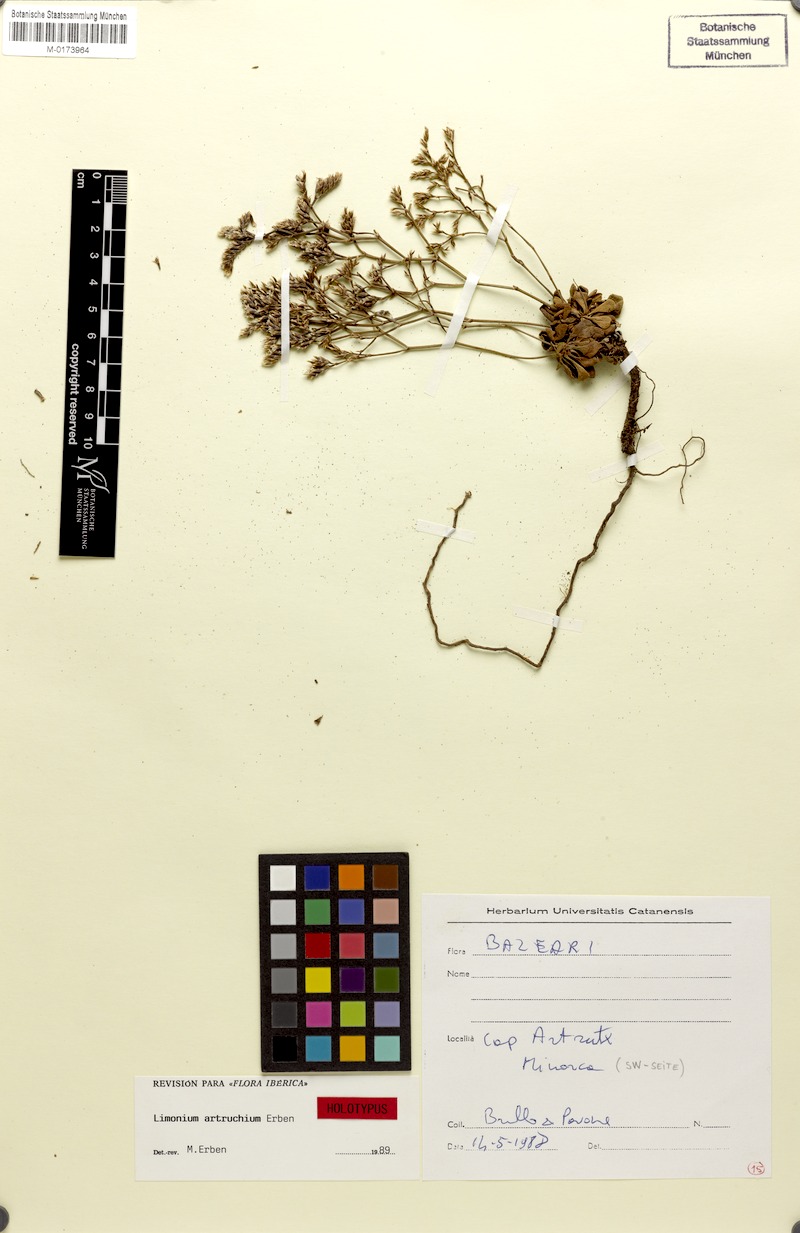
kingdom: Plantae
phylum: Tracheophyta
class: Magnoliopsida
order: Caryophyllales
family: Plumbaginaceae
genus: Limonium
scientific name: Limonium artruchium
